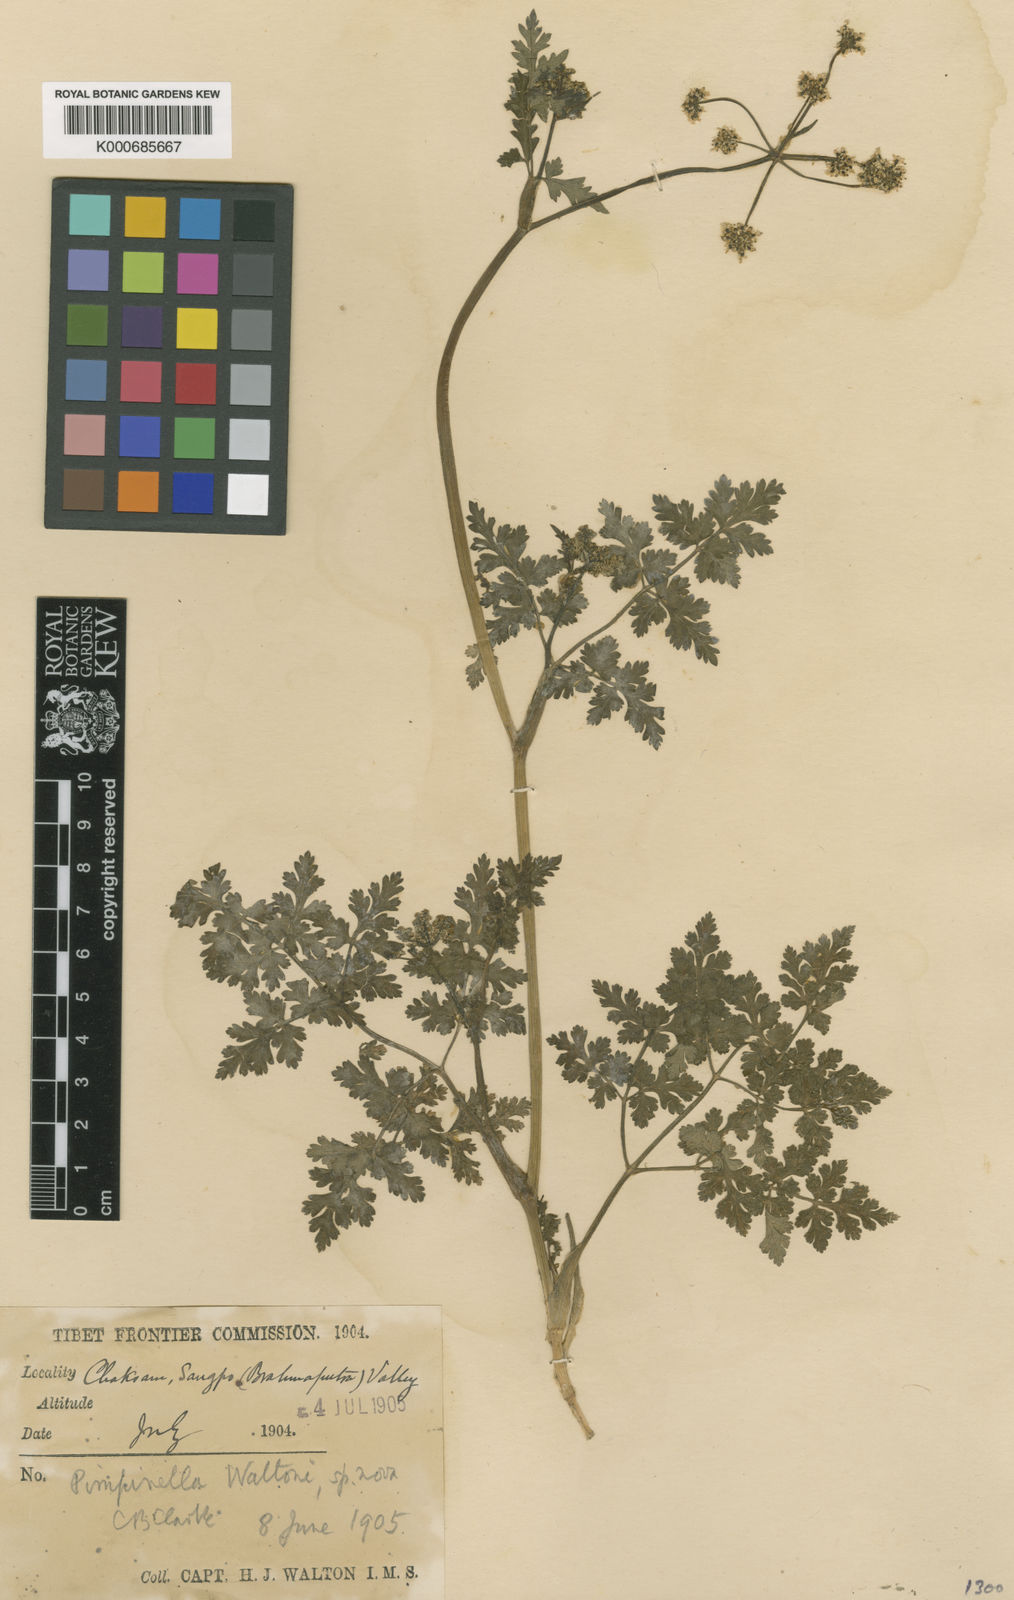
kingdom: Plantae
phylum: Tracheophyta
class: Magnoliopsida
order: Apiales
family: Apiaceae
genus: Carum
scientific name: Carum
